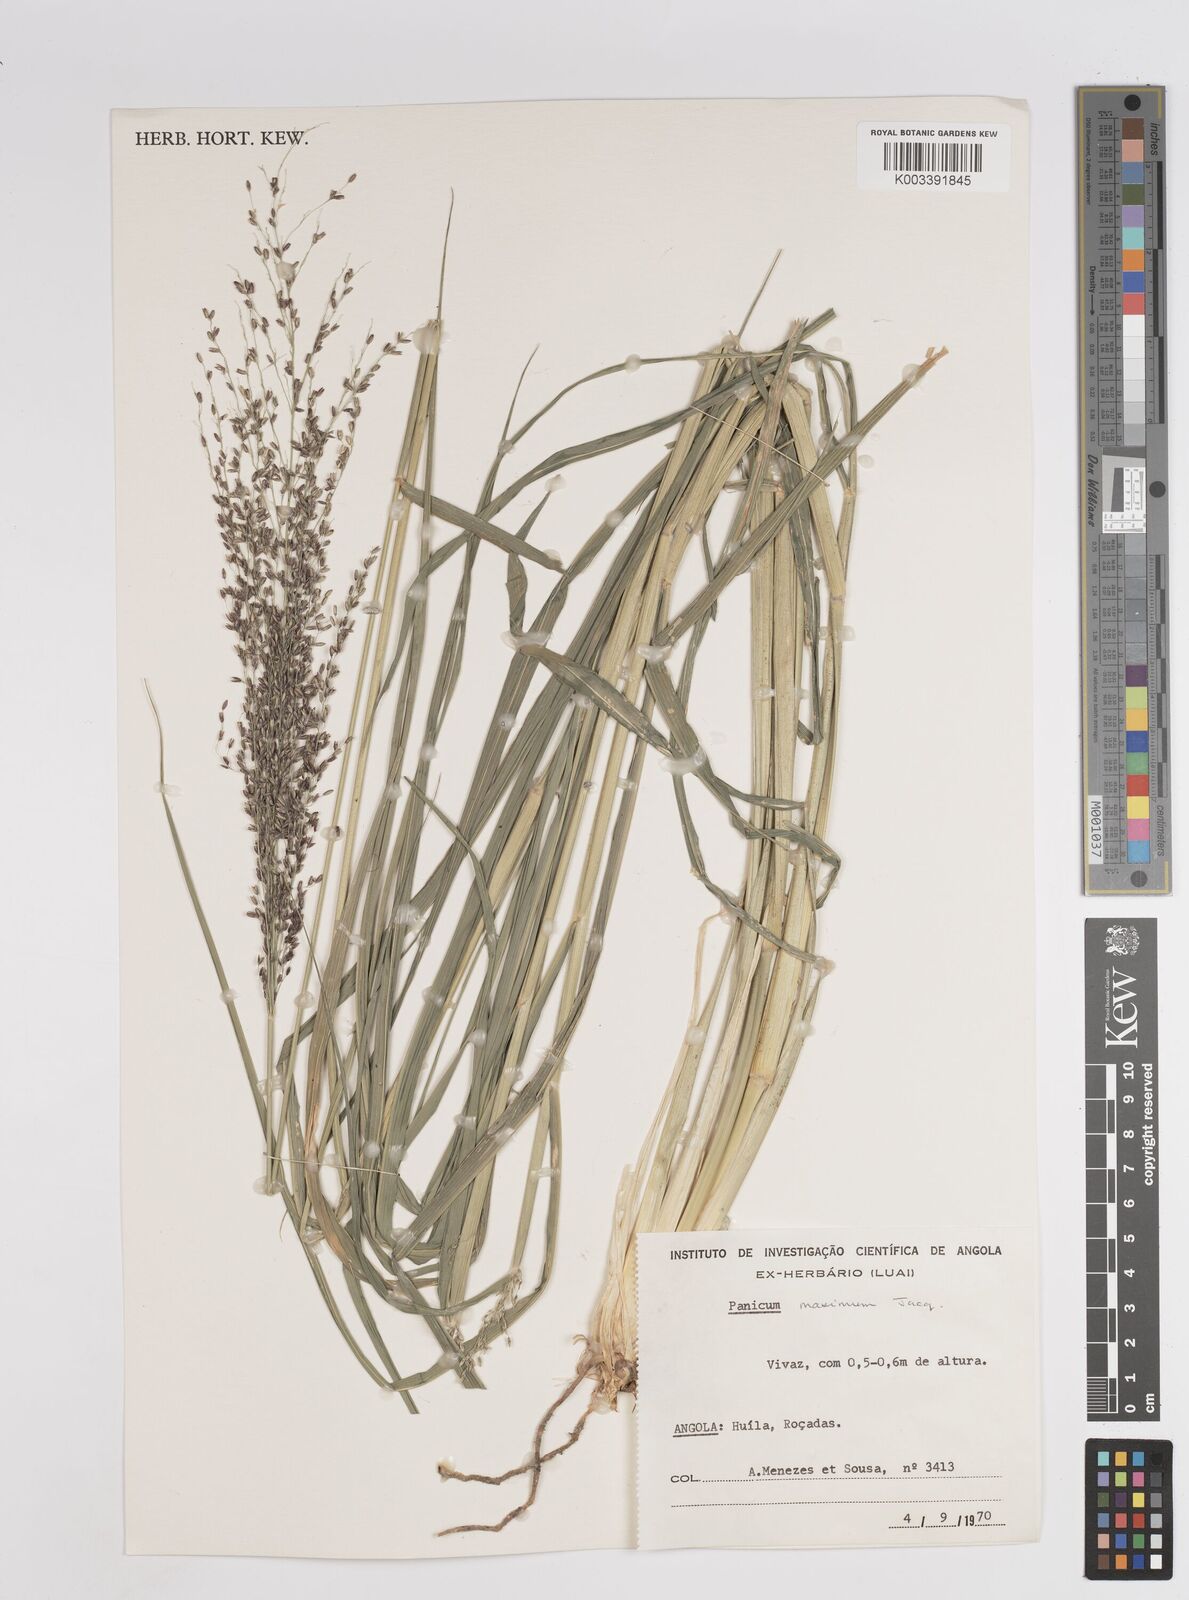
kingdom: Plantae
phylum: Tracheophyta
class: Liliopsida
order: Poales
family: Poaceae
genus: Megathyrsus
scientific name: Megathyrsus maximus
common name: Guineagrass
